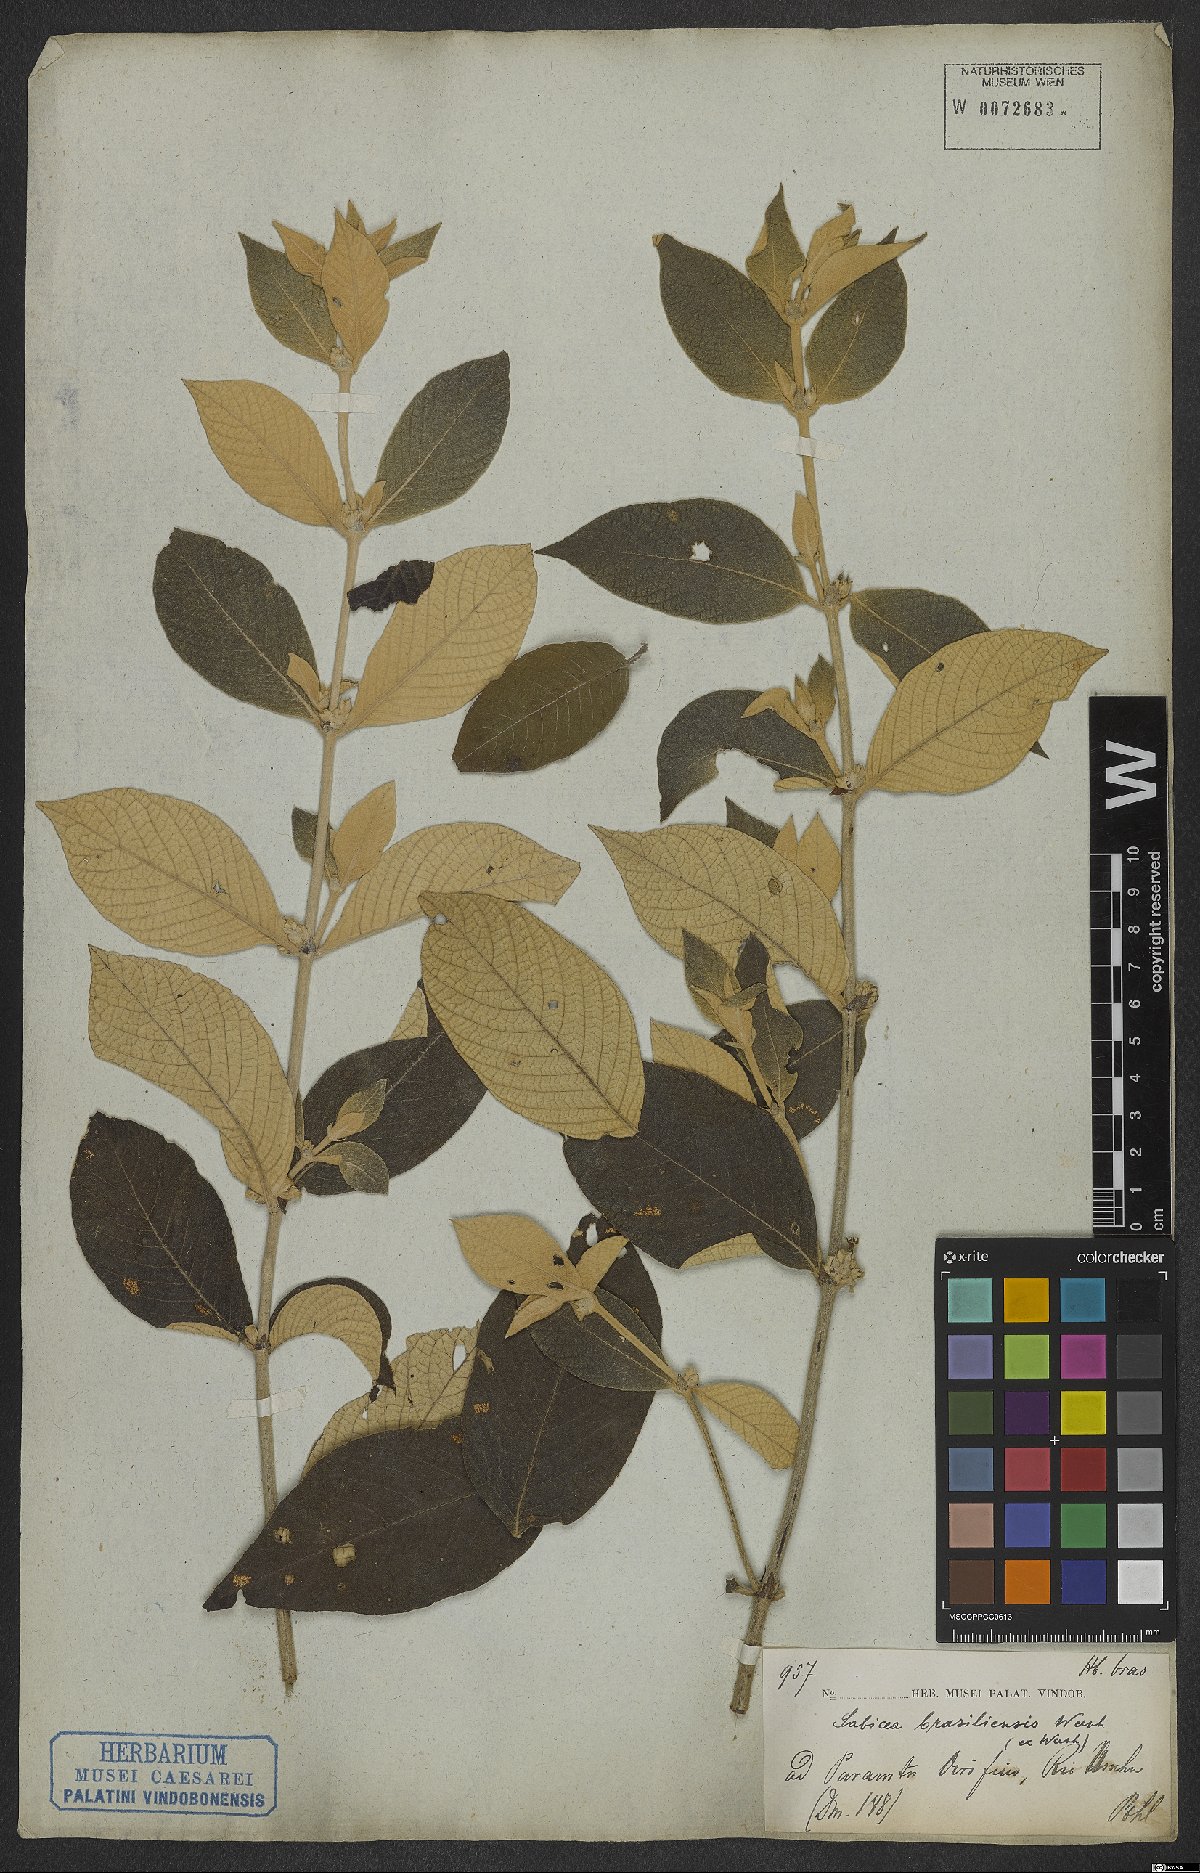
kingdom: Plantae
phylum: Tracheophyta
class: Magnoliopsida
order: Gentianales
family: Rubiaceae
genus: Sabicea
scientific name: Sabicea brasiliensis
